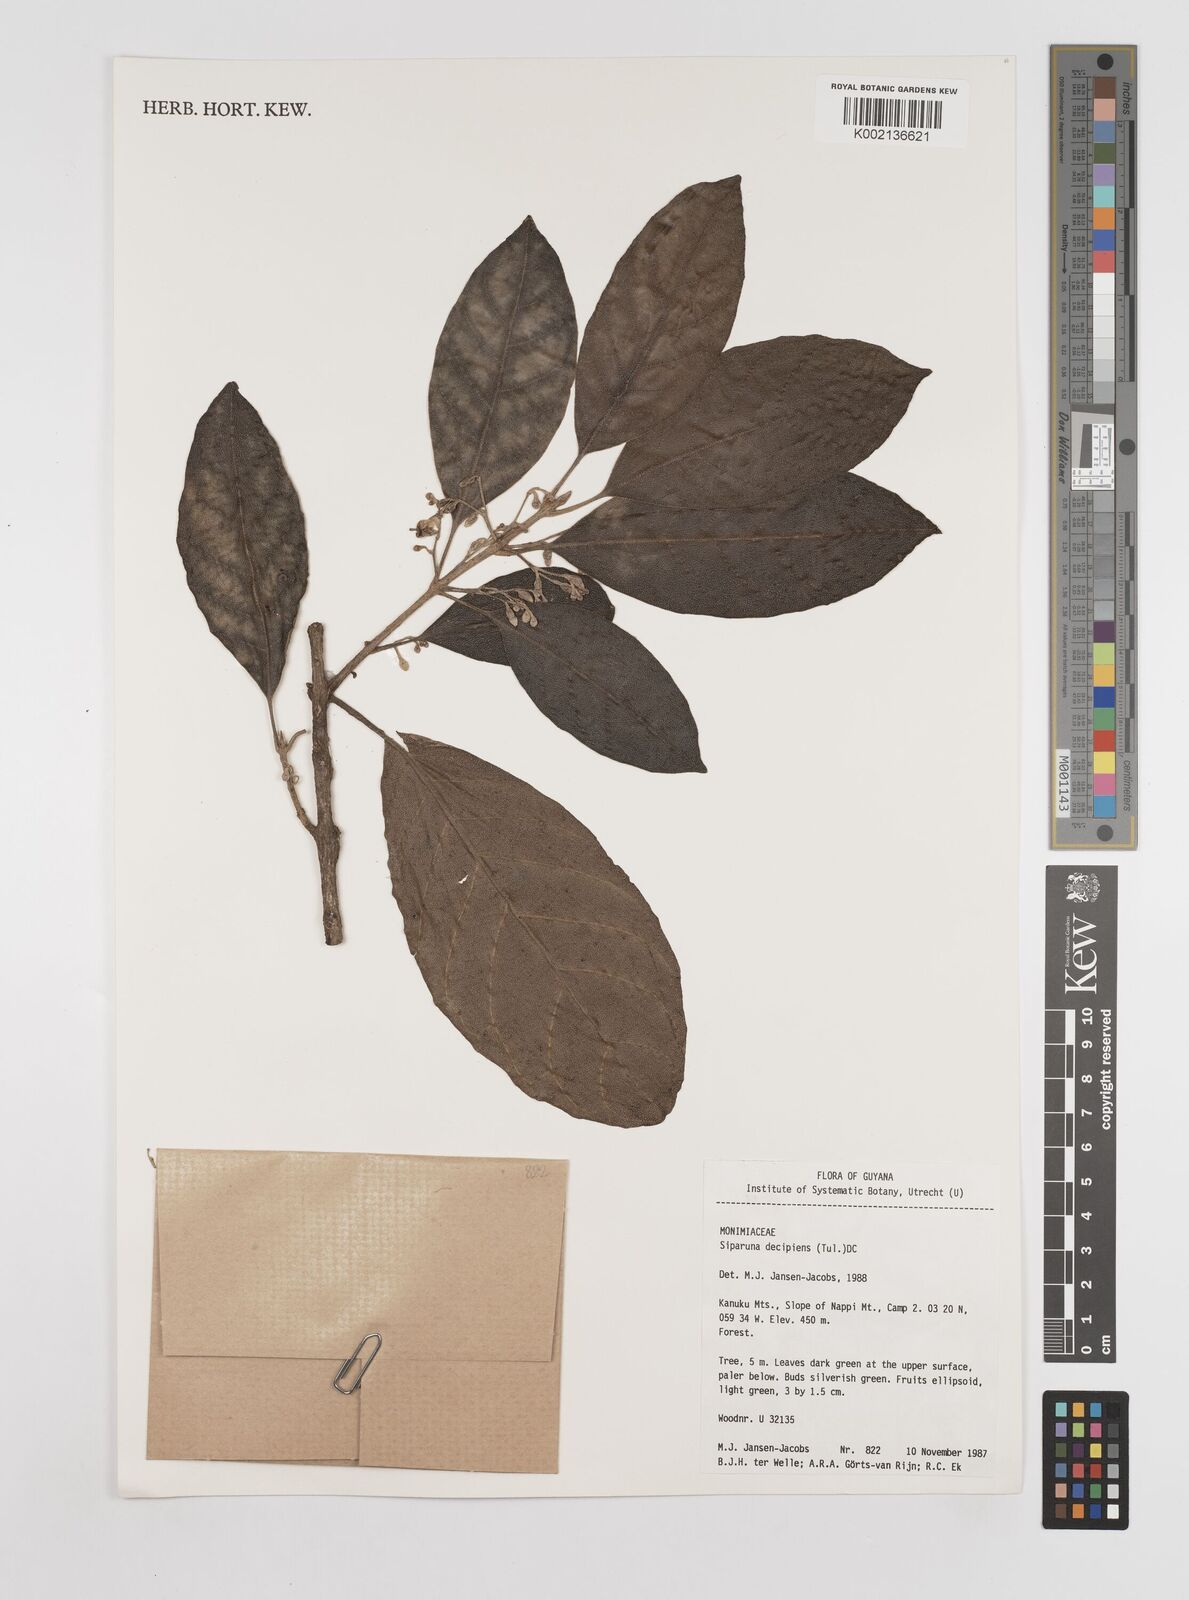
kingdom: Plantae
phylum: Tracheophyta
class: Magnoliopsida
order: Laurales
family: Siparunaceae
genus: Siparuna
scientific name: Siparuna decipiens
